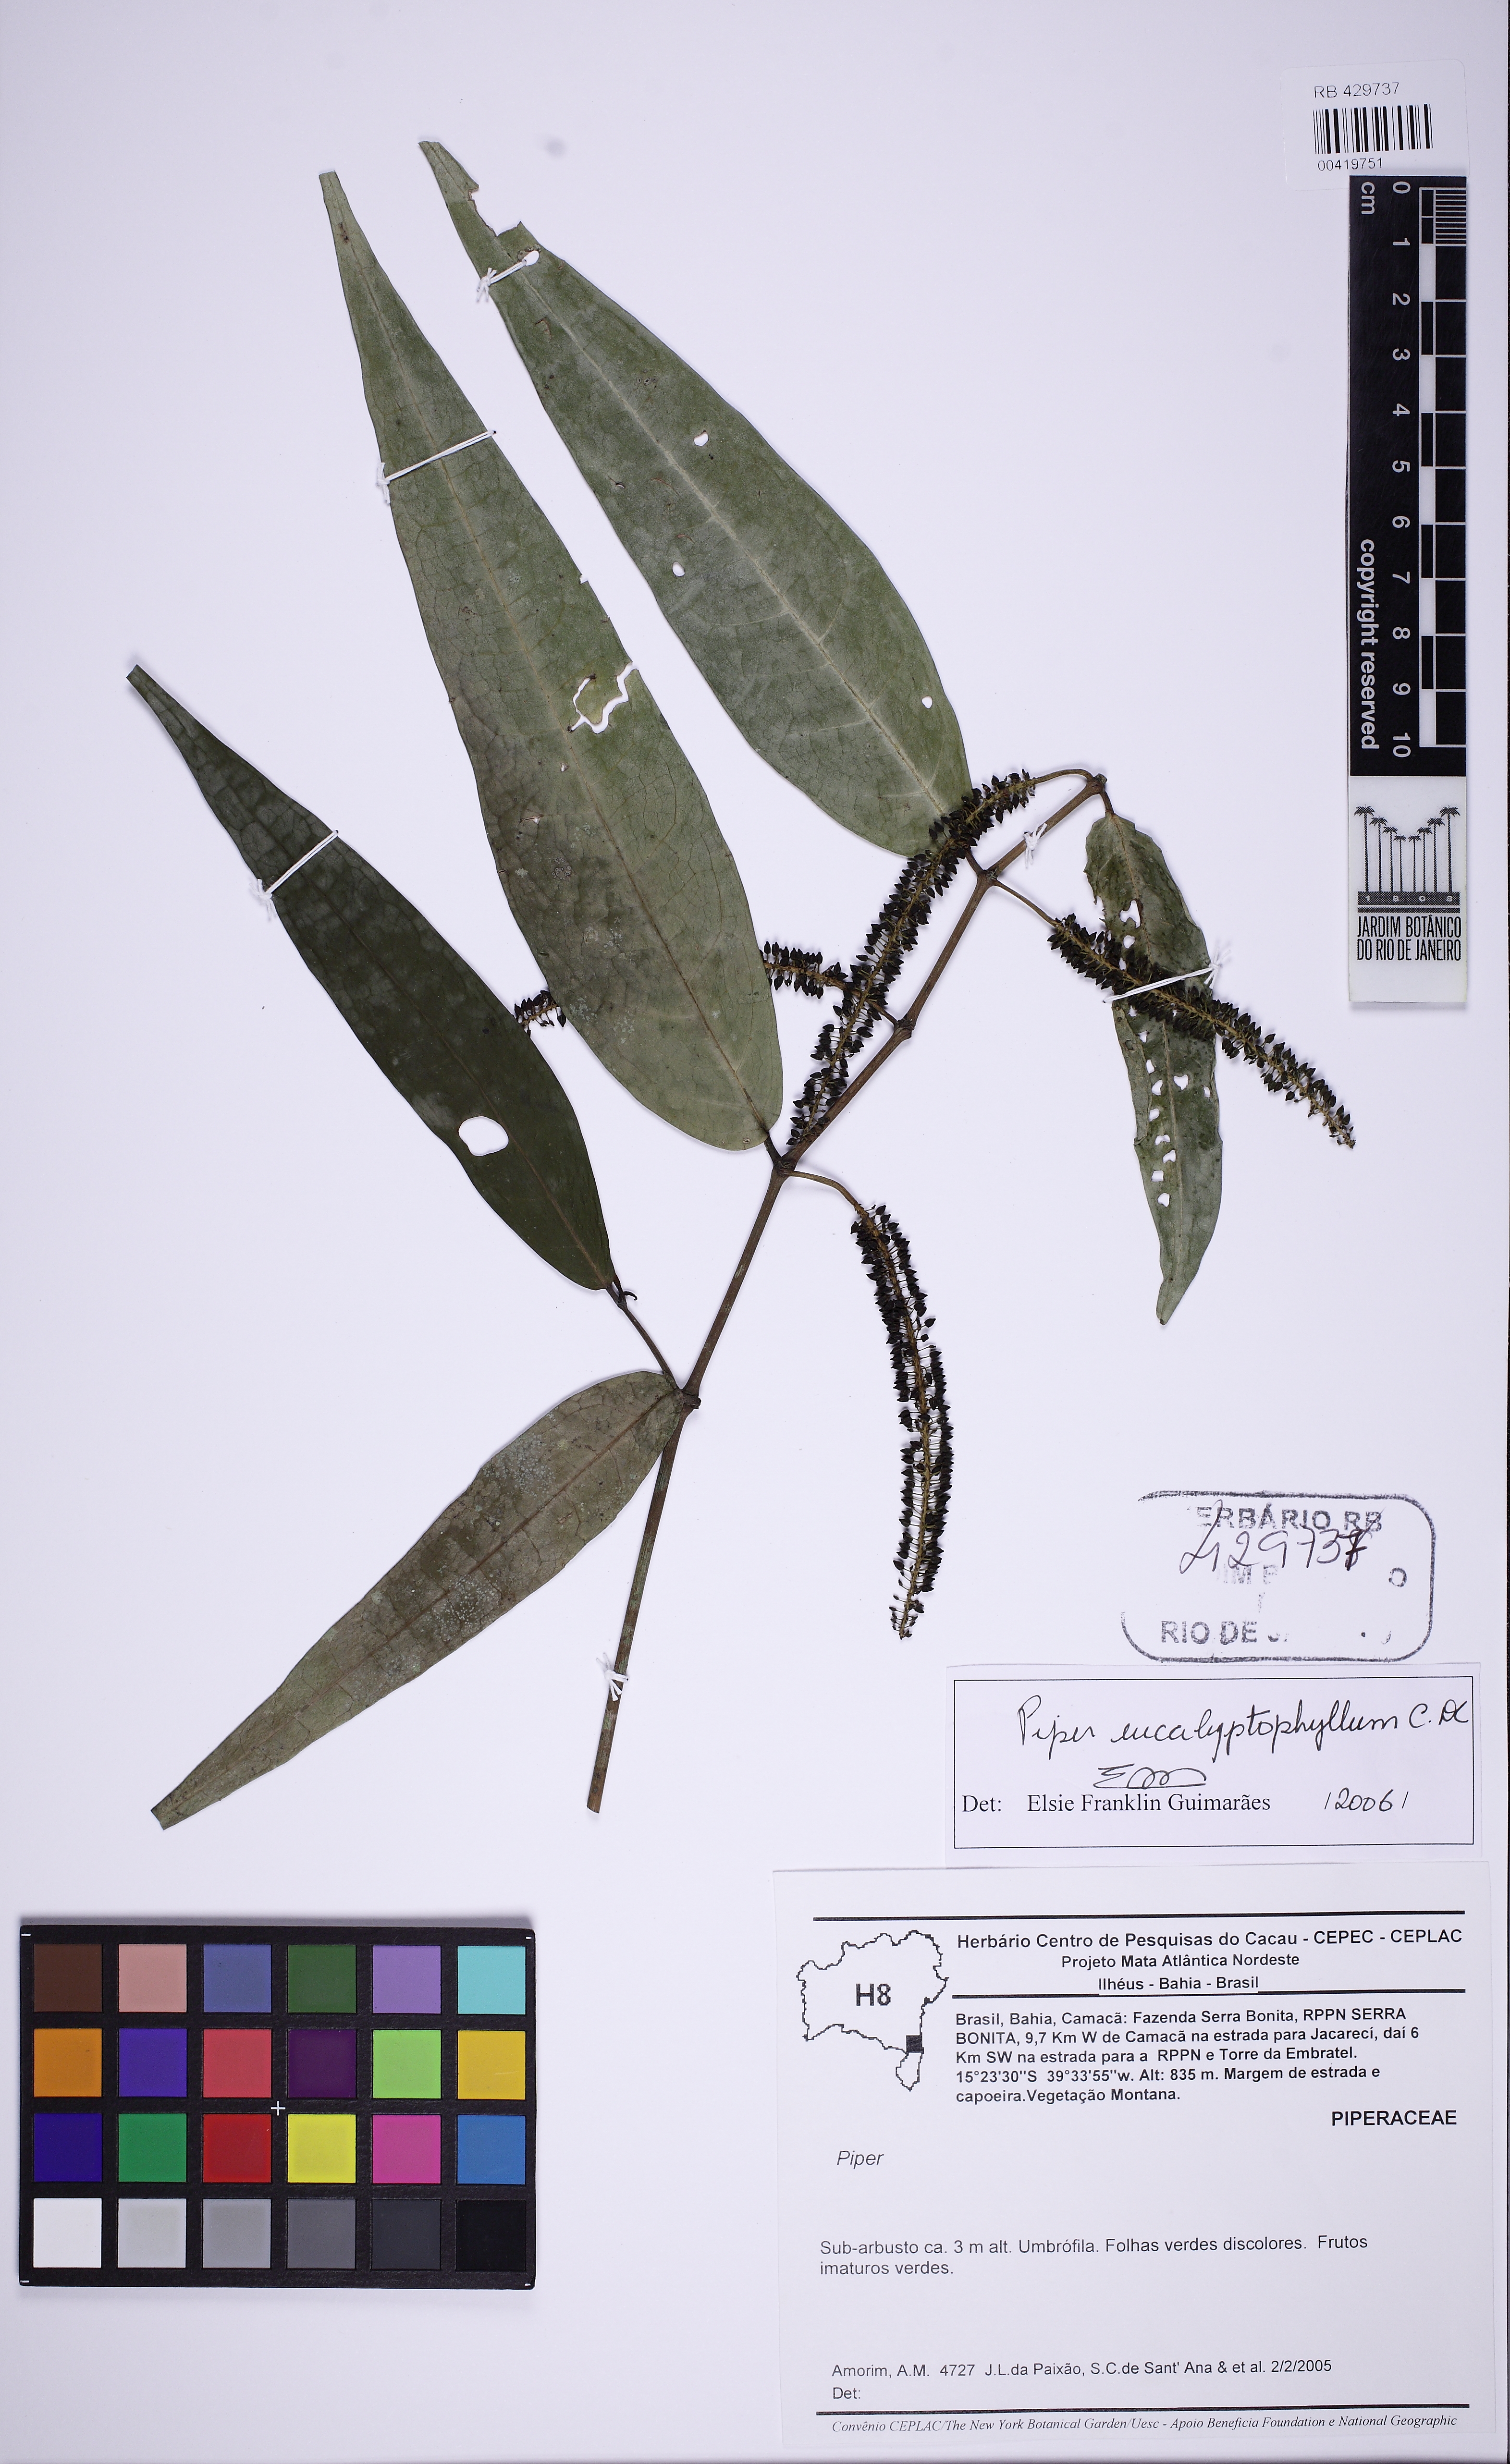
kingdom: Plantae
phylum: Tracheophyta
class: Magnoliopsida
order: Piperales
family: Piperaceae
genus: Piper
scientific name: Piper eucalyptiphyllum
